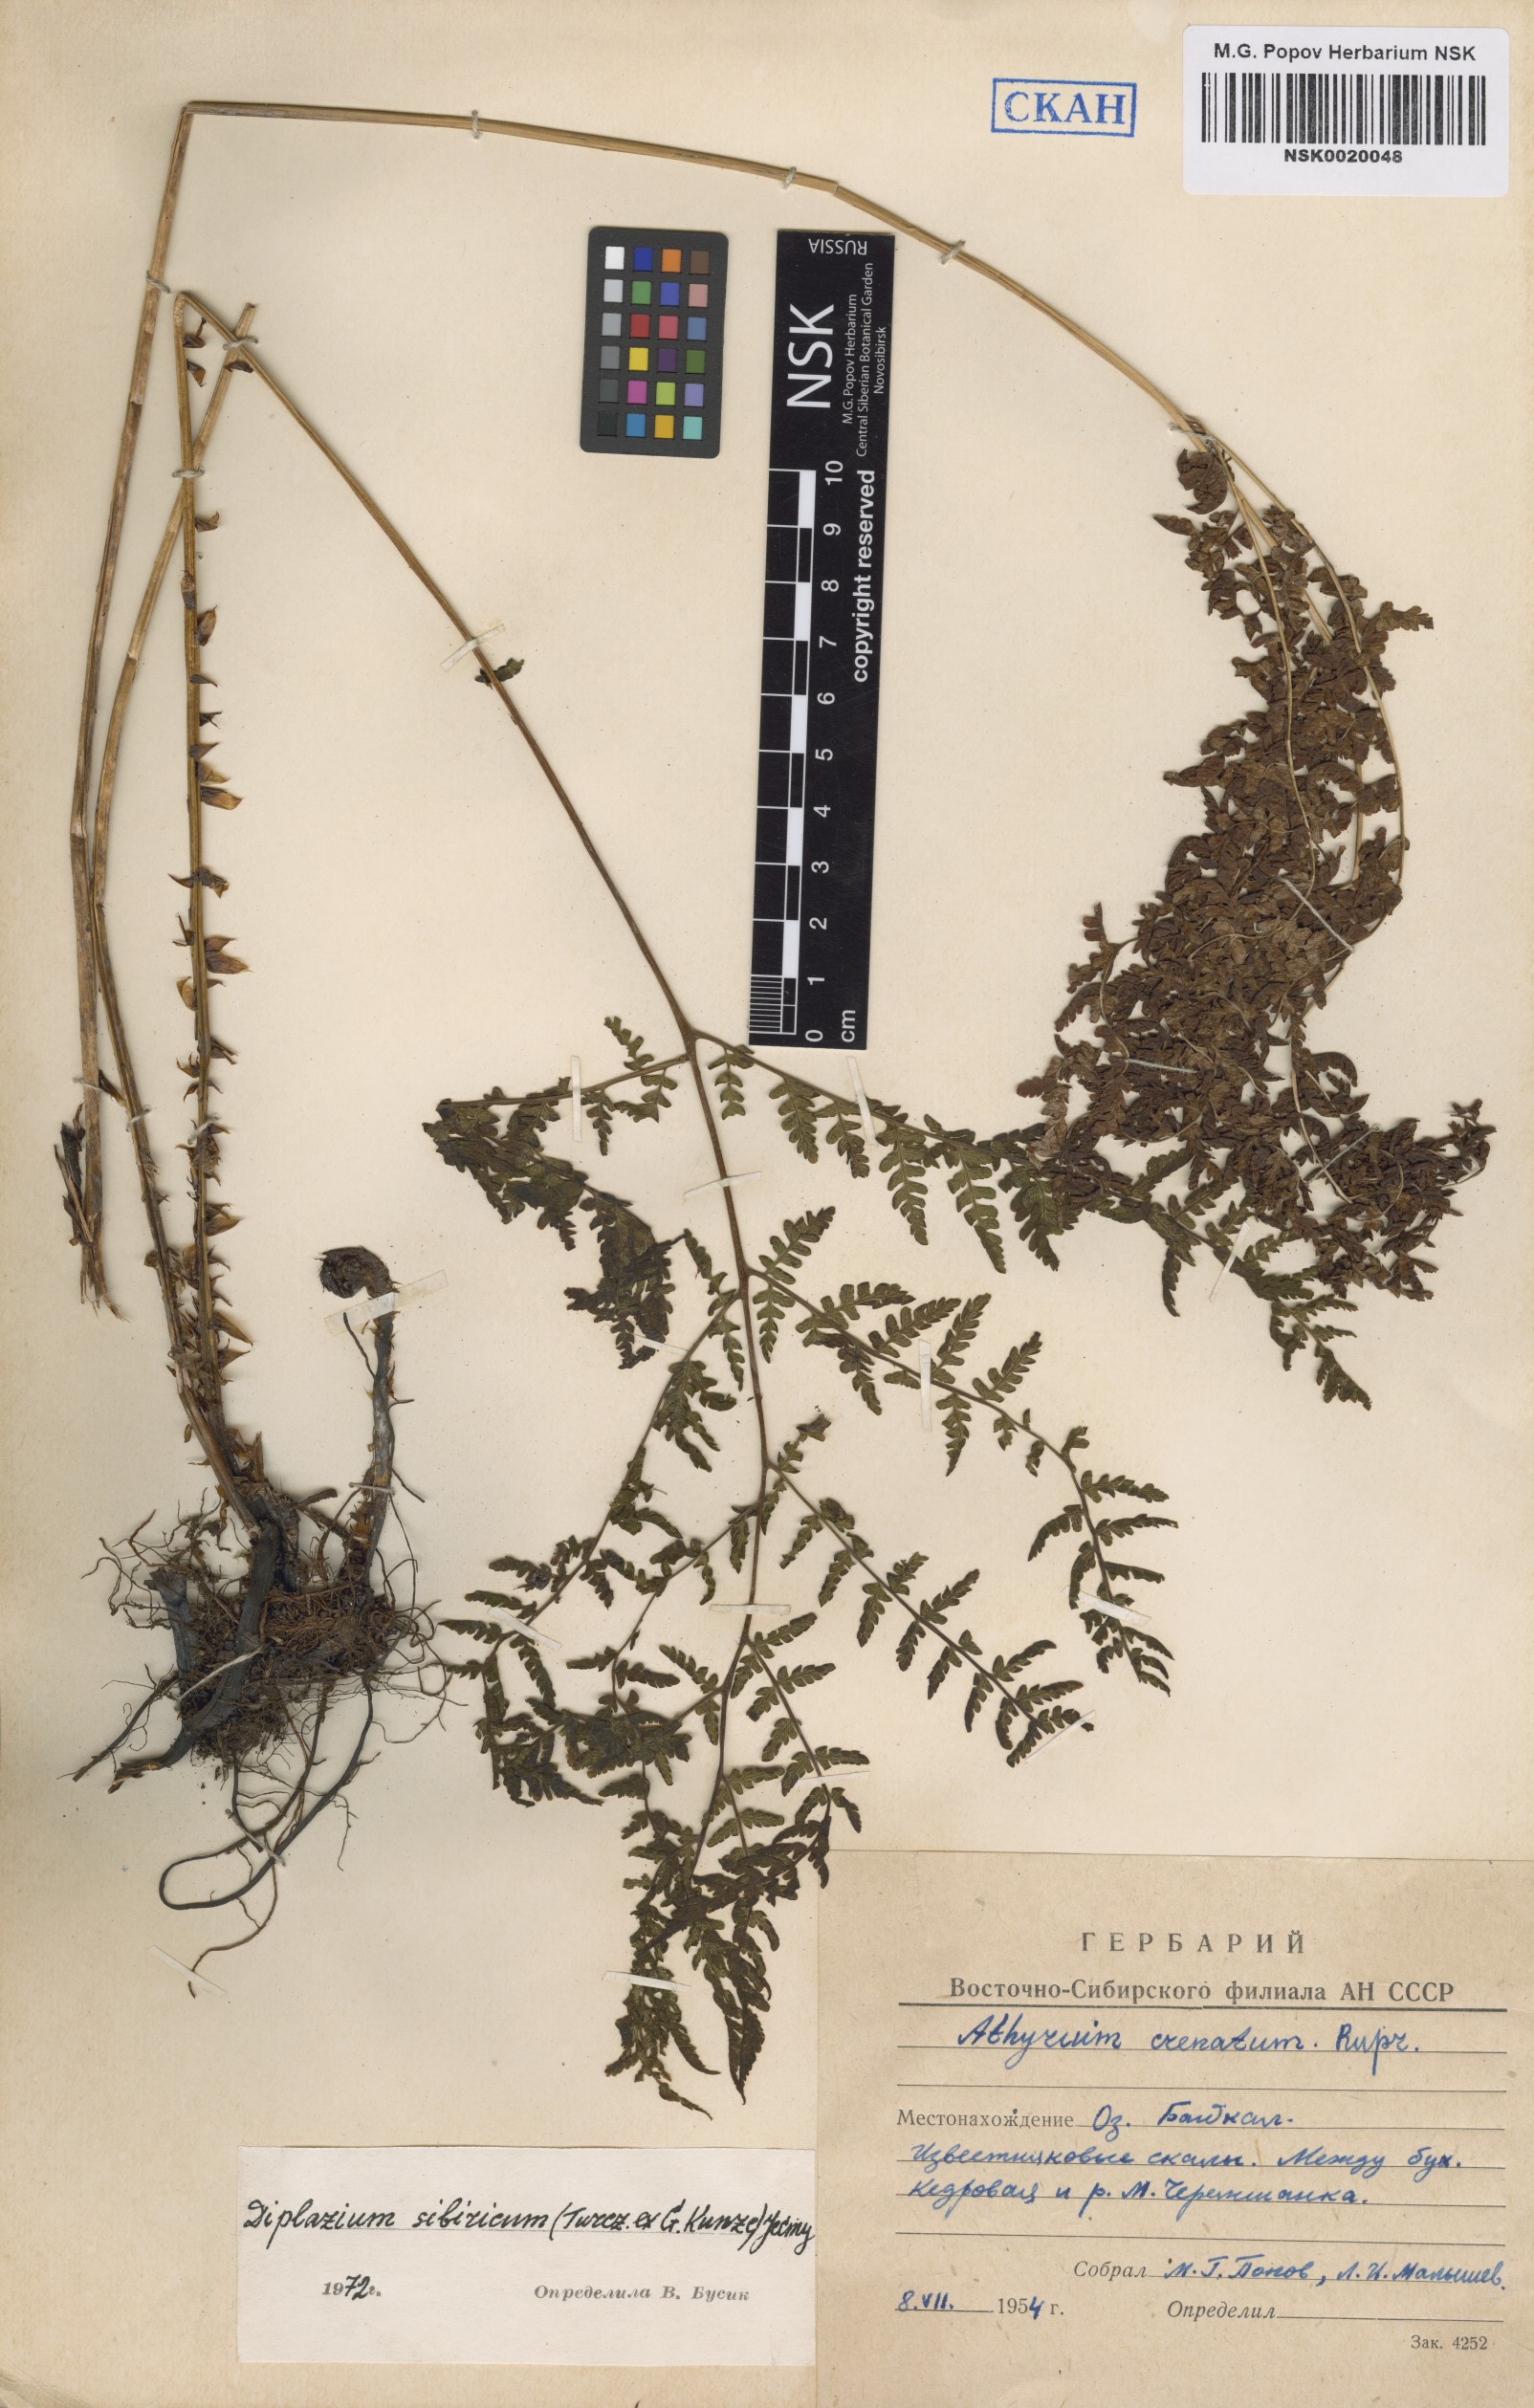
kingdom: Plantae
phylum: Tracheophyta
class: Polypodiopsida
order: Polypodiales
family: Athyriaceae
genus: Diplazium
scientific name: Diplazium sibiricum
